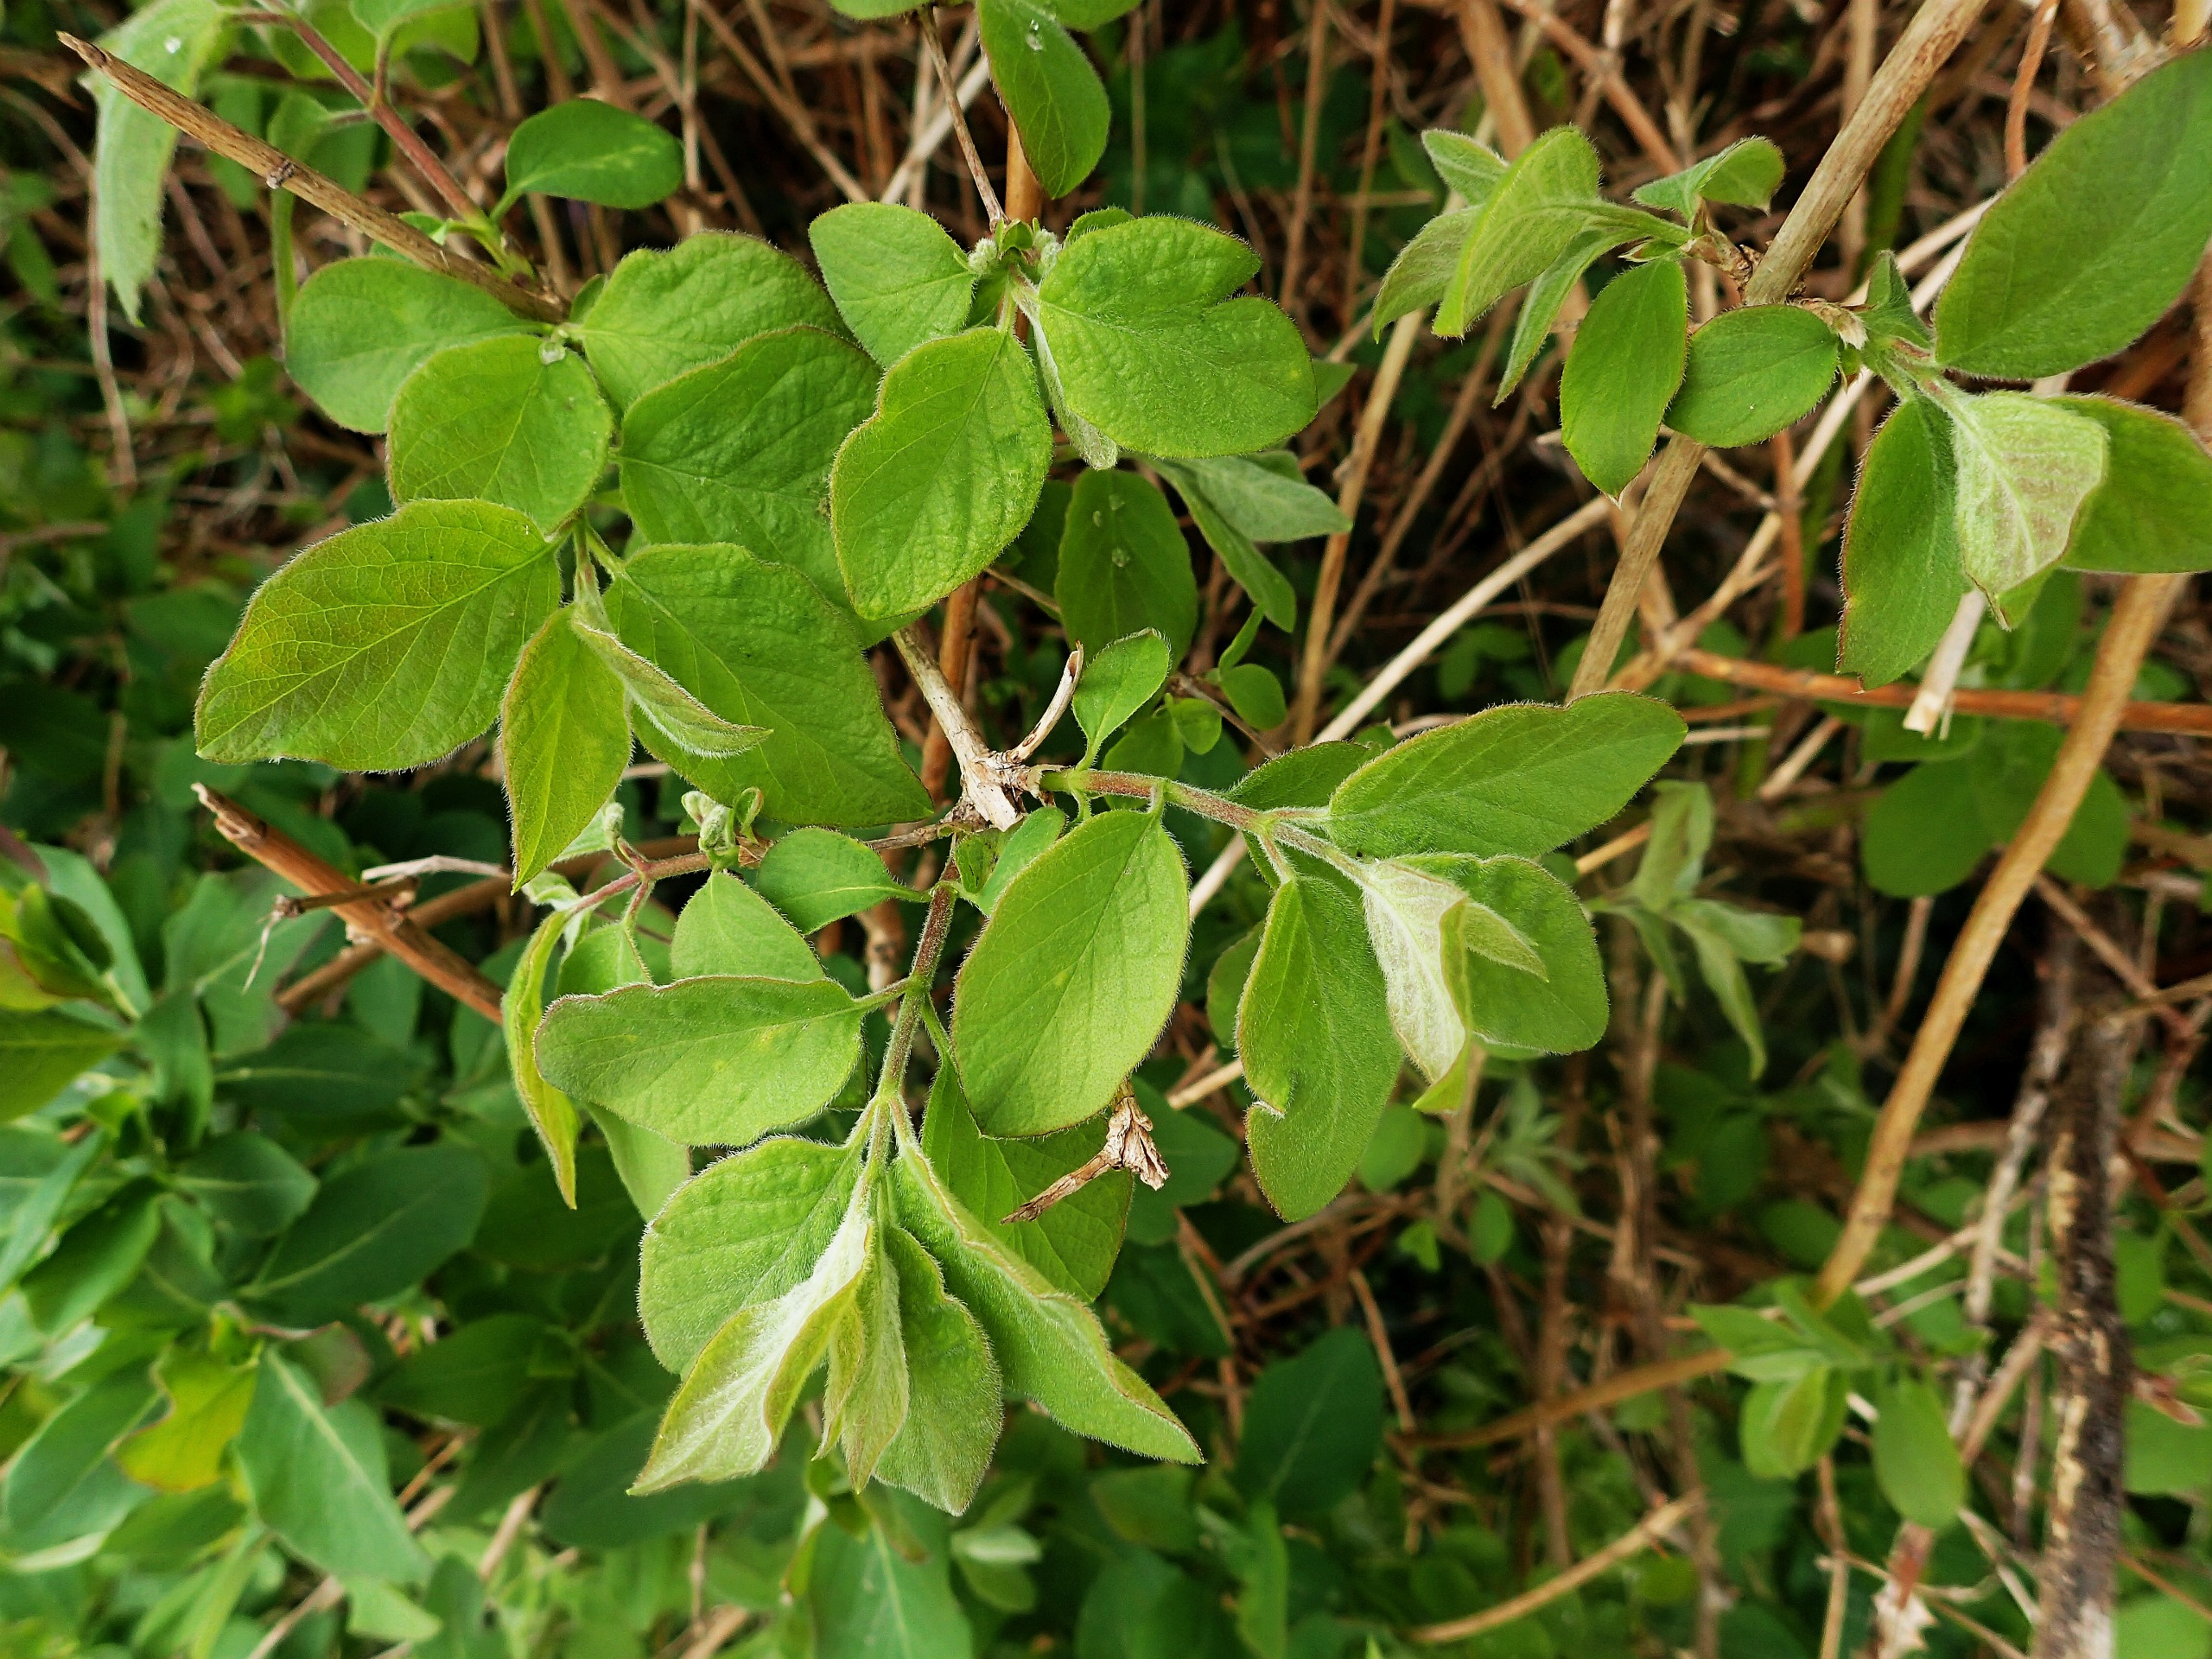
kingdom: Plantae
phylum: Tracheophyta
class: Magnoliopsida
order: Dipsacales
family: Caprifoliaceae
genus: Lonicera
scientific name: Lonicera xylosteum
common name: Dunet gedeblad
